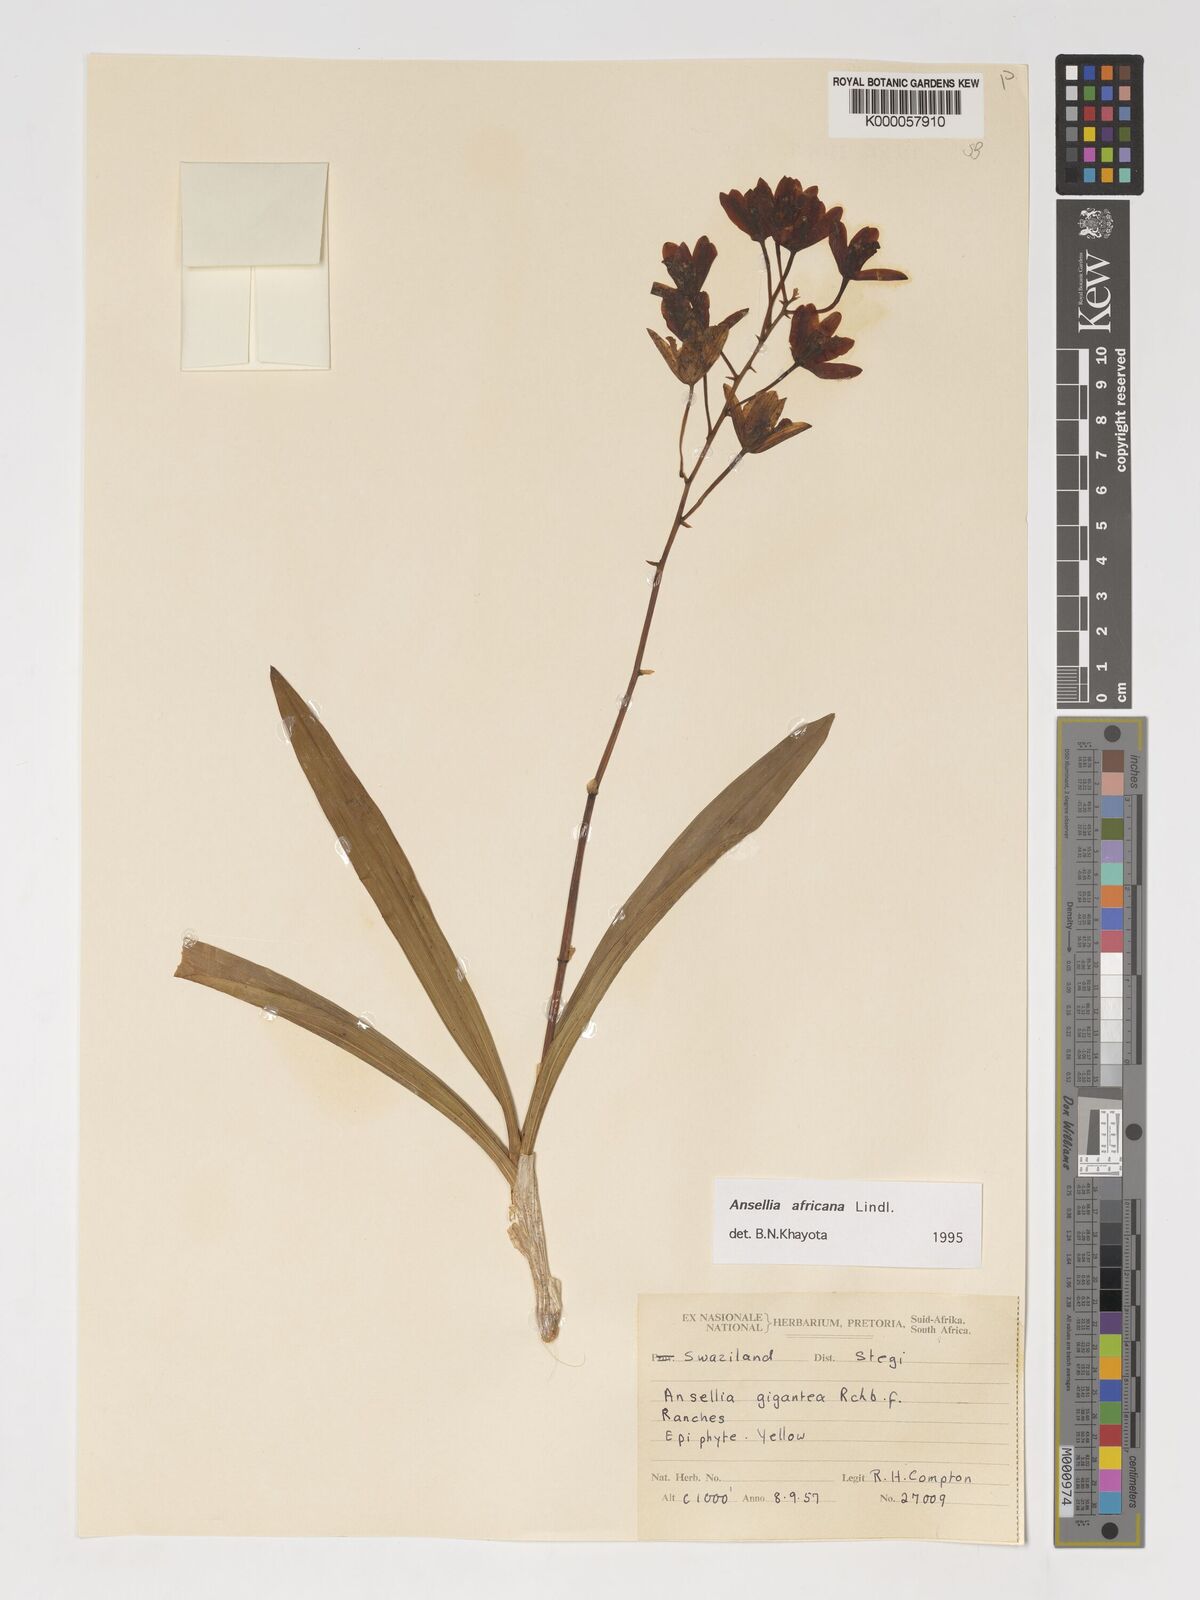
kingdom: Plantae
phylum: Tracheophyta
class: Liliopsida
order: Asparagales
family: Orchidaceae
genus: Ansellia
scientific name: Ansellia africana
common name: African ansellia
